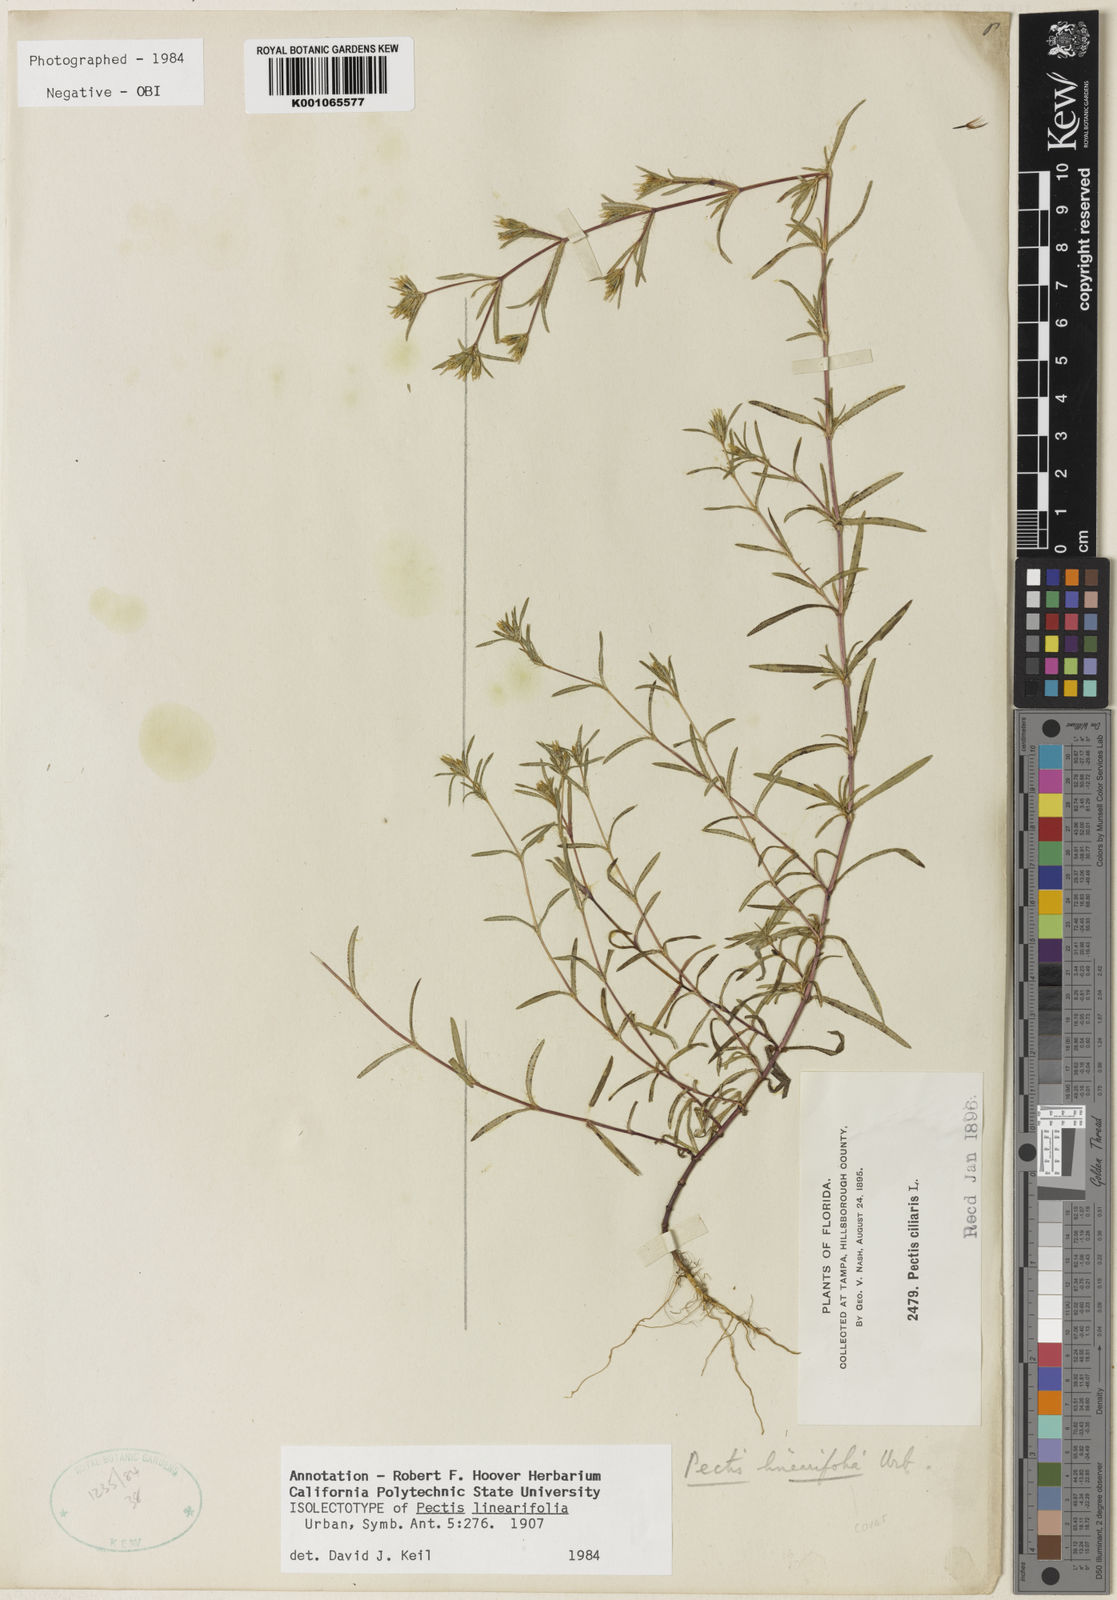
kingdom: Plantae
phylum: Tracheophyta
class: Magnoliopsida
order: Asterales
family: Asteraceae
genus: Pectis
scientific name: Pectis linearifolia
